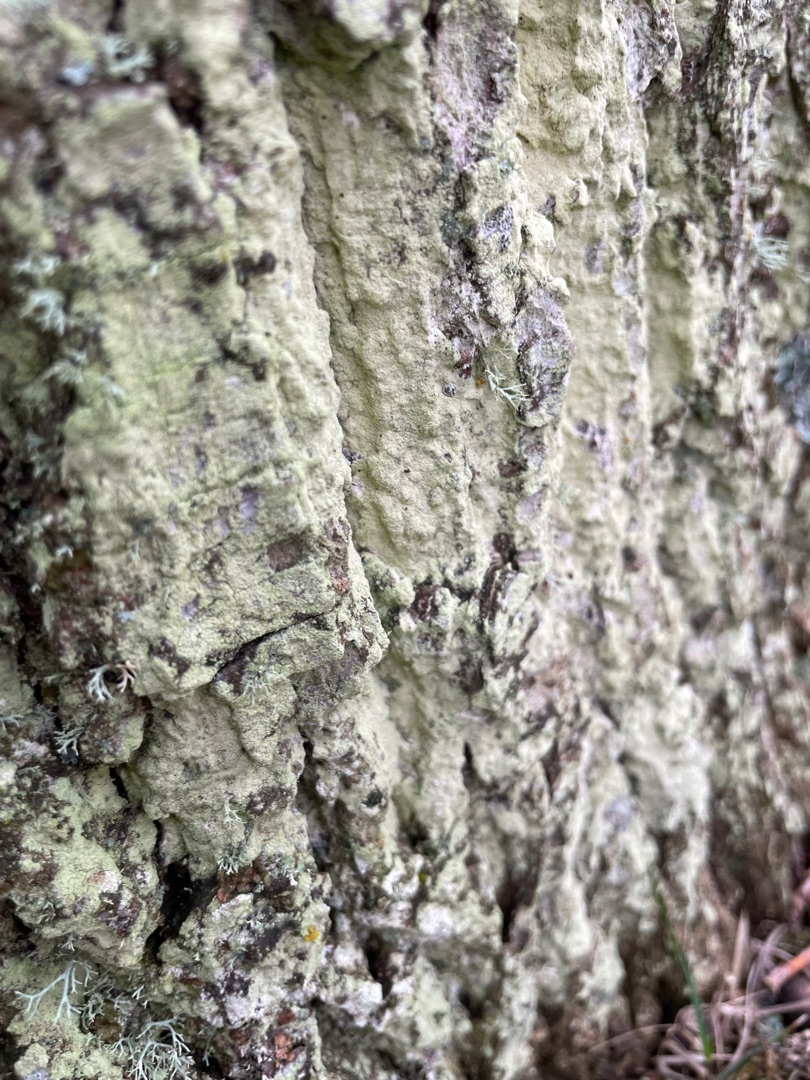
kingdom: Fungi
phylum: Ascomycota
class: Lecanoromycetes
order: Lecanorales
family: Stereocaulaceae
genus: Lepraria
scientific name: Lepraria
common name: Støvlav
